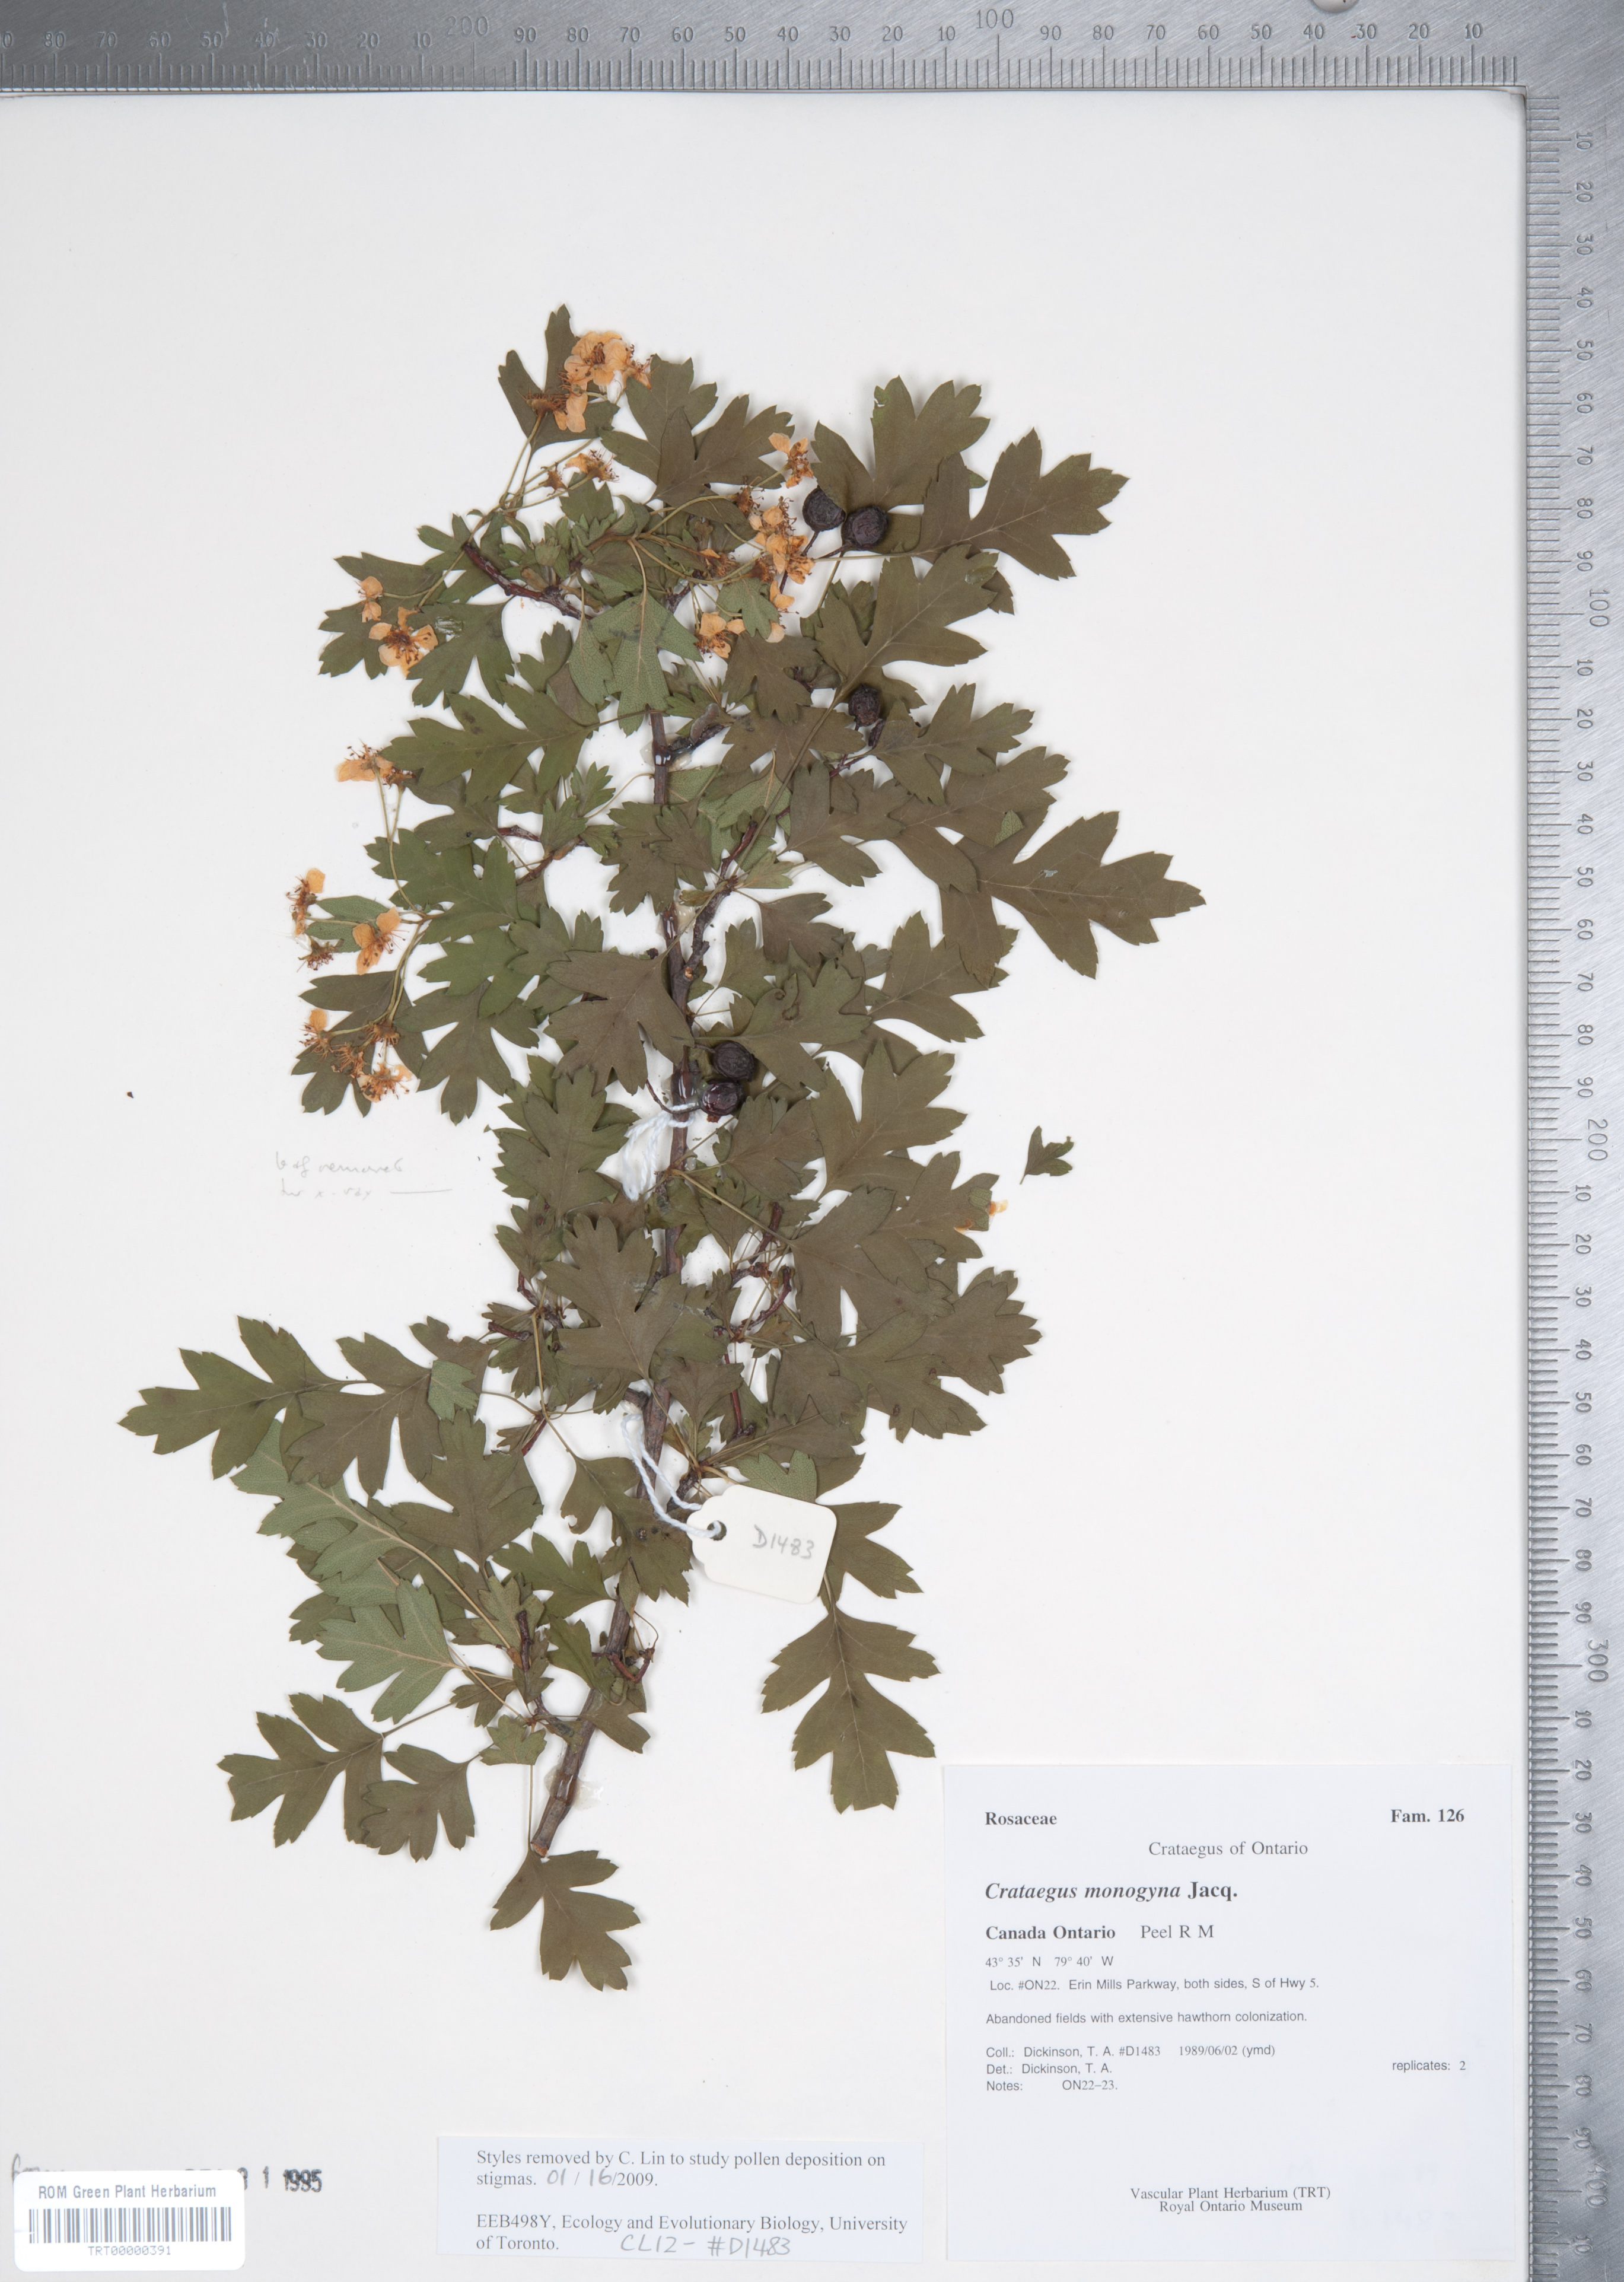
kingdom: Plantae
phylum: Tracheophyta
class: Magnoliopsida
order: Rosales
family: Rosaceae
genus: Crataegus
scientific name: Crataegus monogyna
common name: Hawthorn
